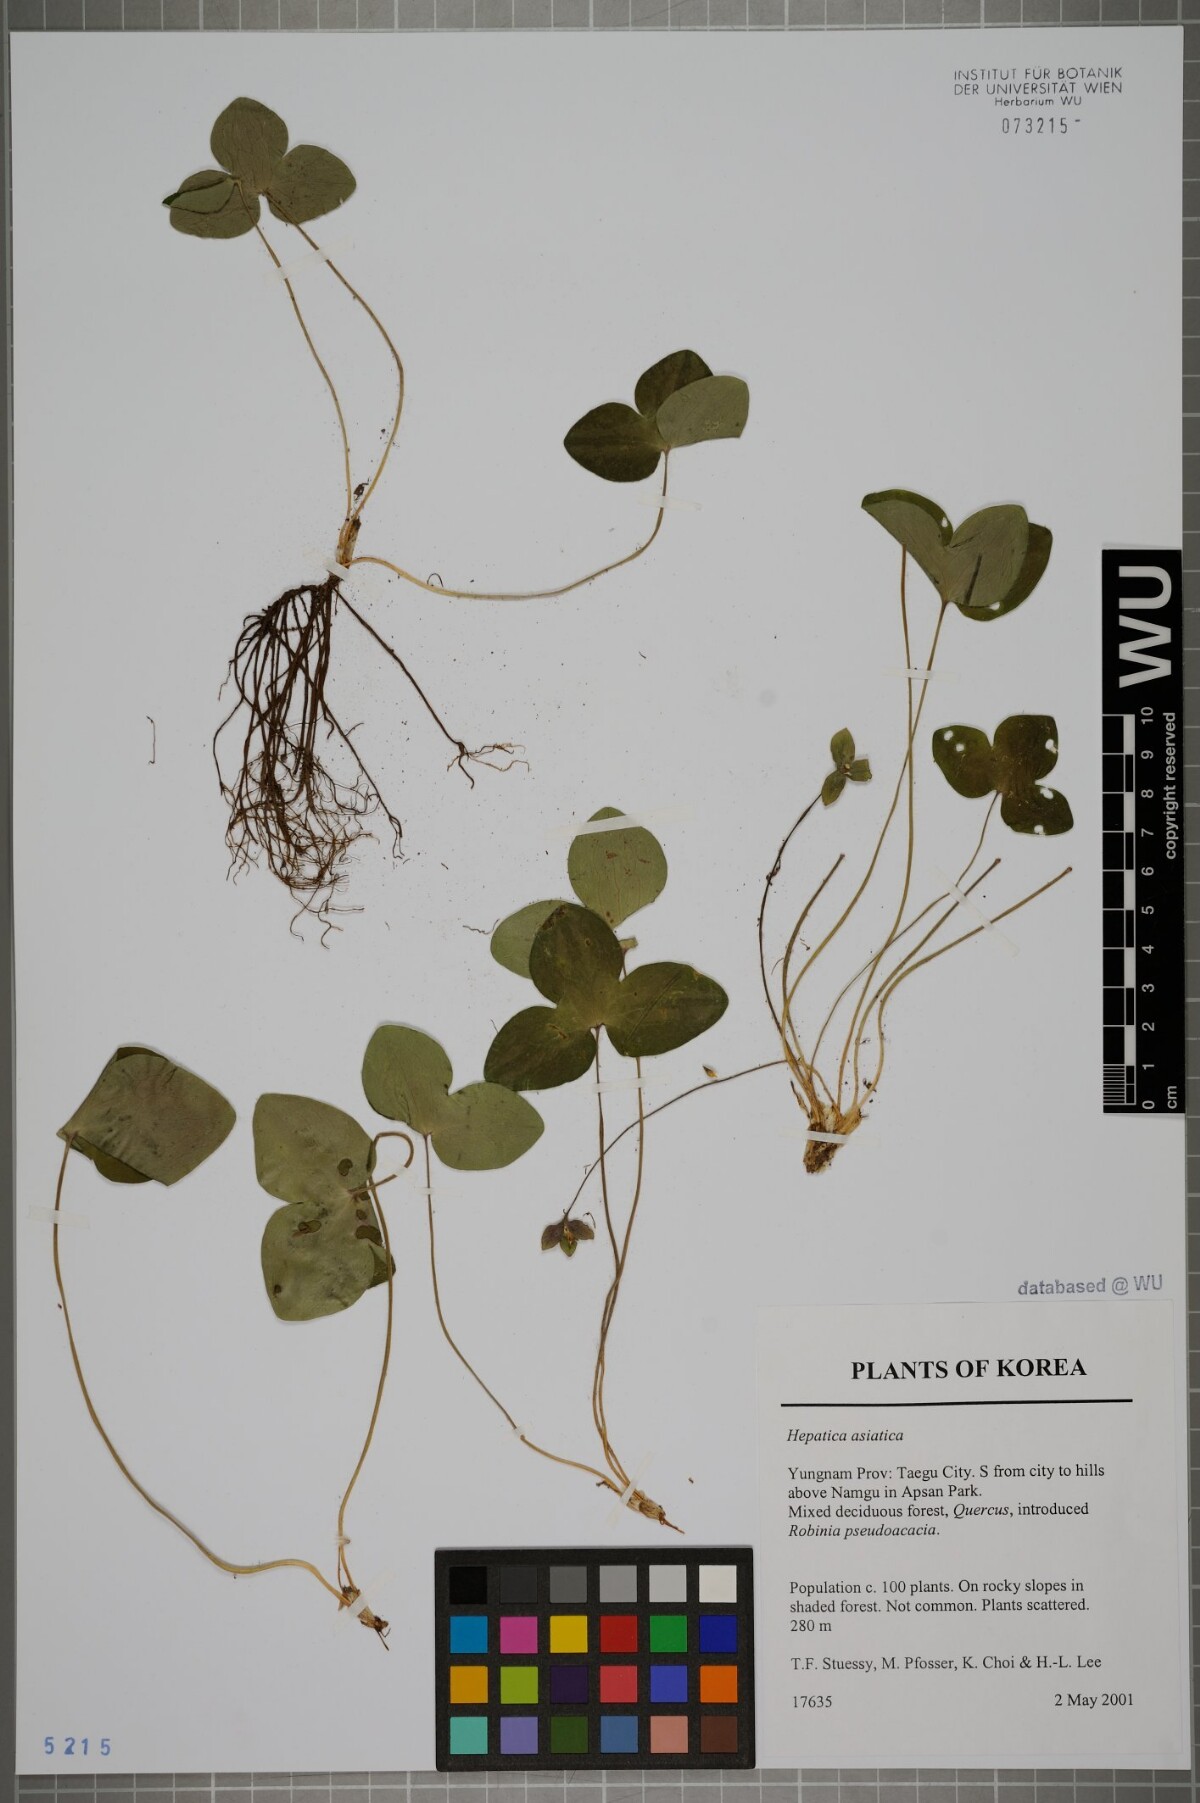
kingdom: Plantae
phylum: Tracheophyta
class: Magnoliopsida
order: Ranunculales
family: Ranunculaceae
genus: Hepatica
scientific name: Hepatica asiatica
